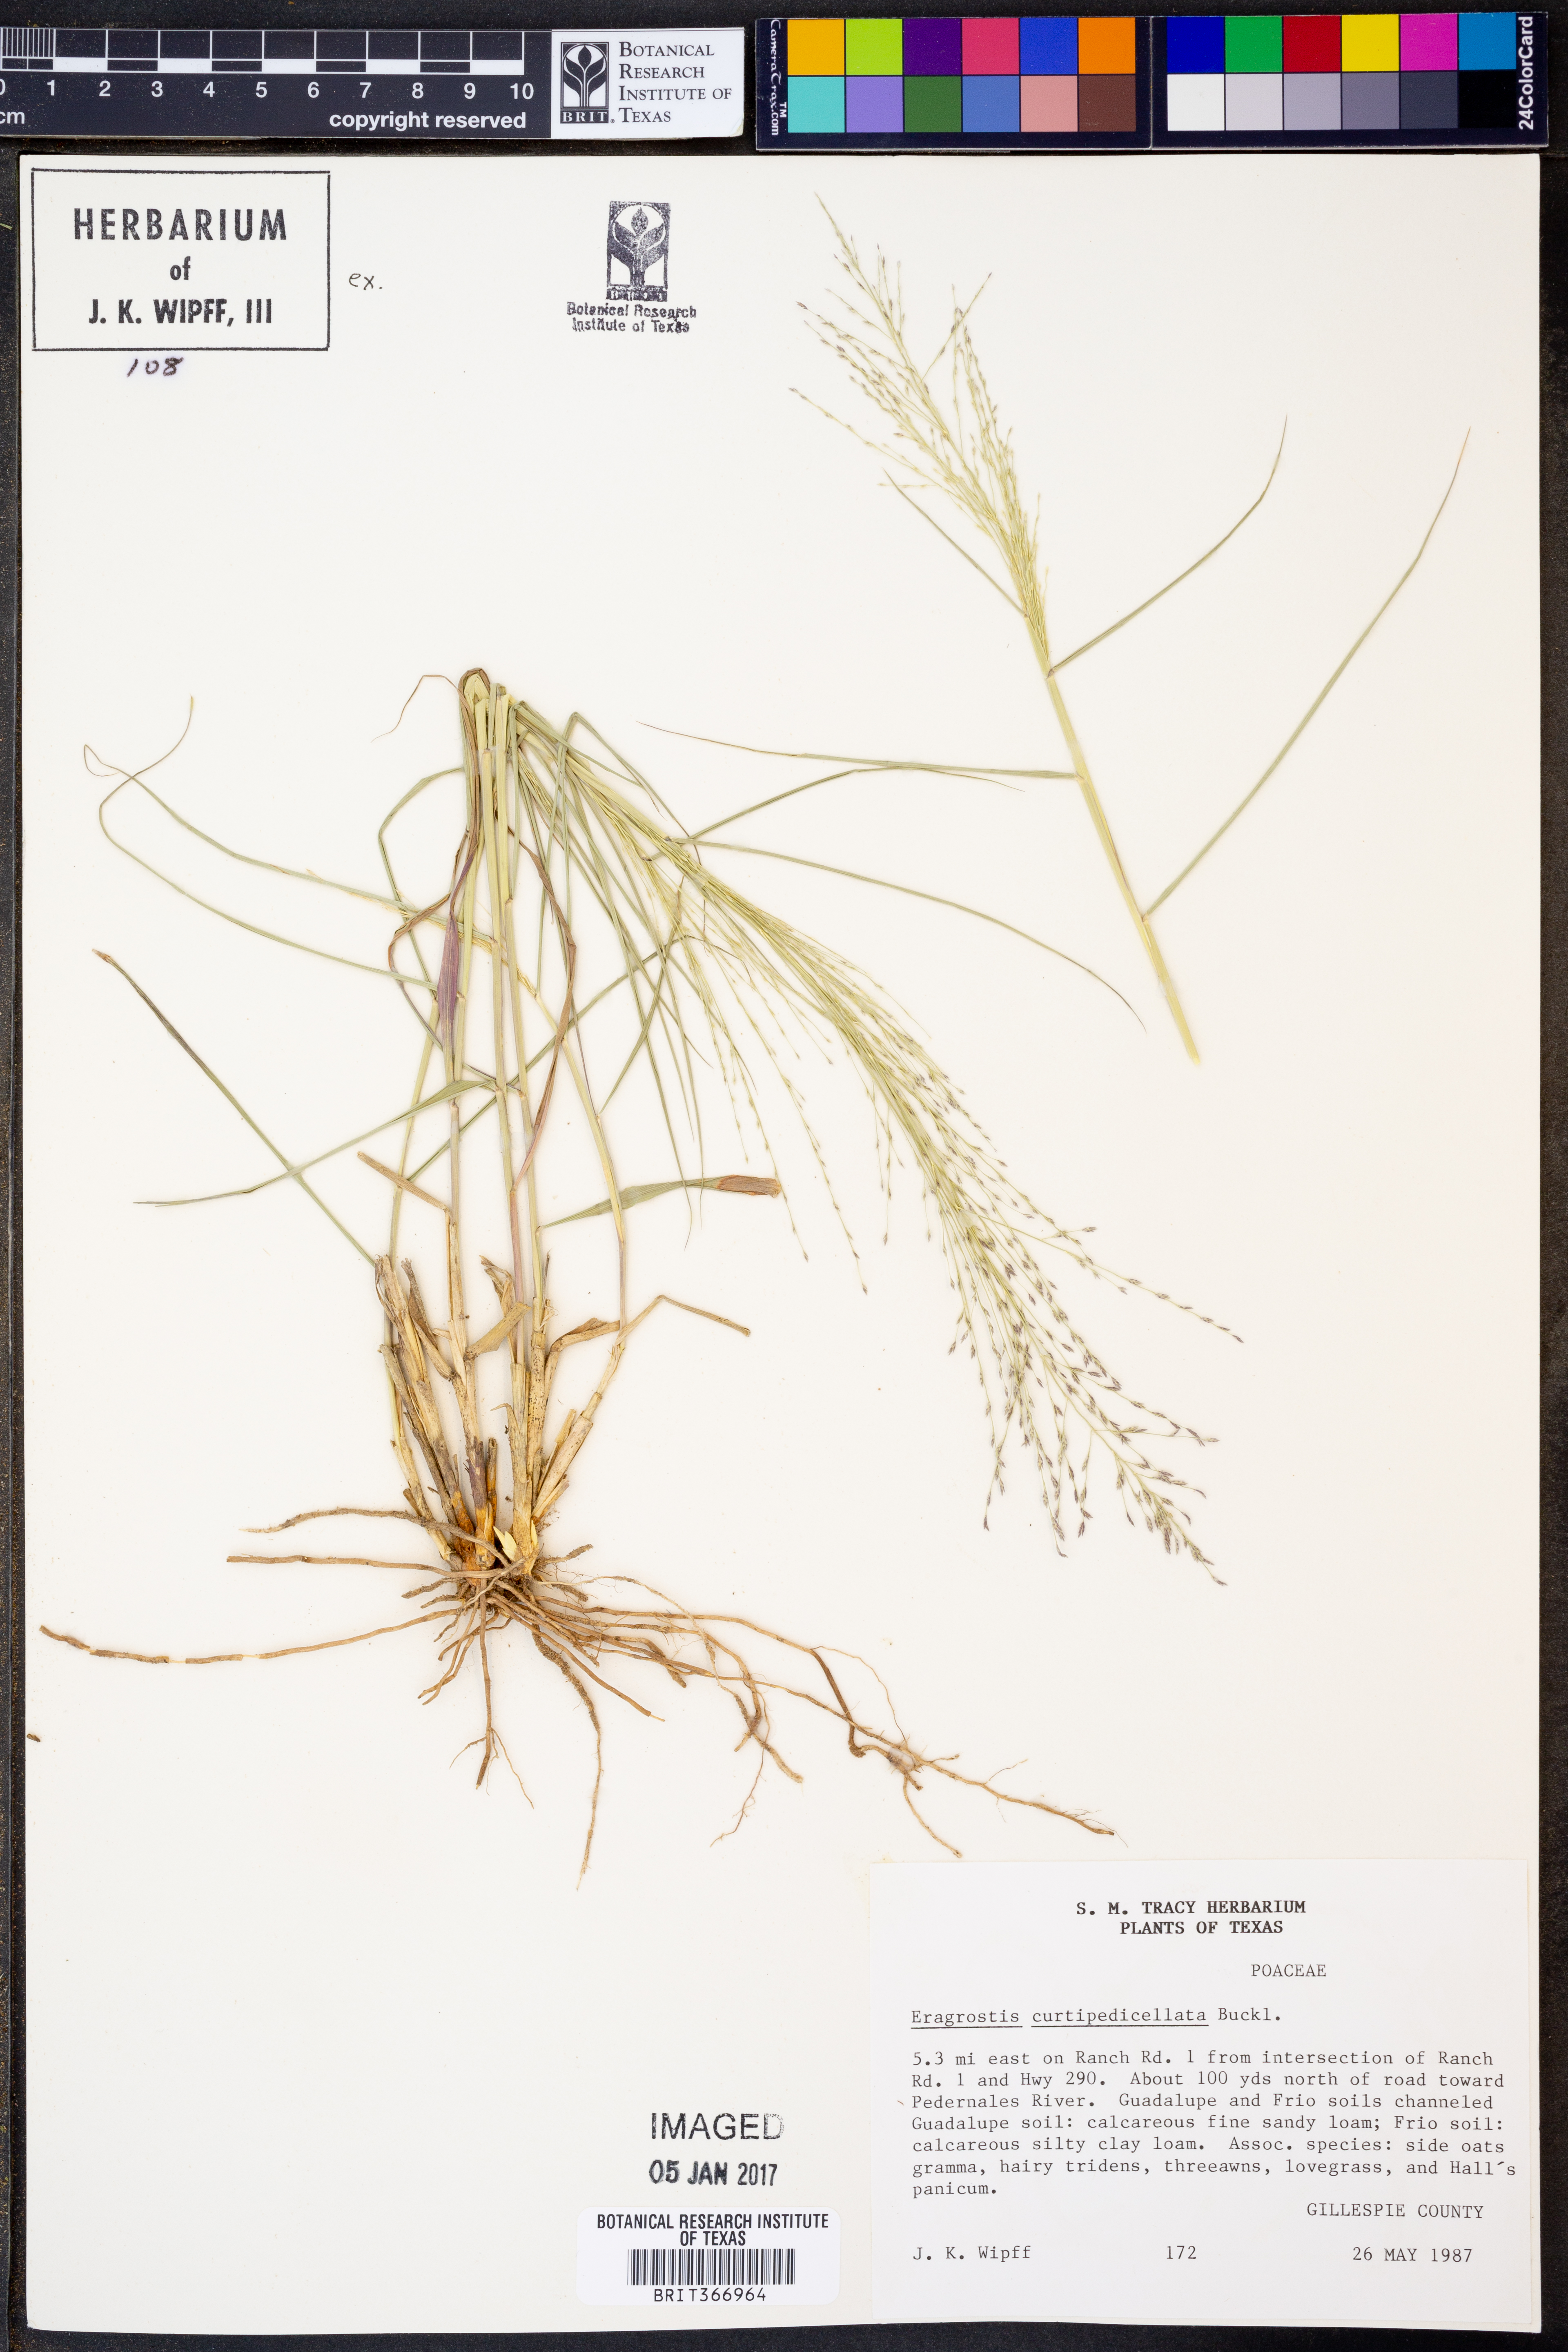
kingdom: Plantae
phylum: Tracheophyta
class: Liliopsida
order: Poales
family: Poaceae
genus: Eragrostis
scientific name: Eragrostis curtipedicellata
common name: Gummy love grass
